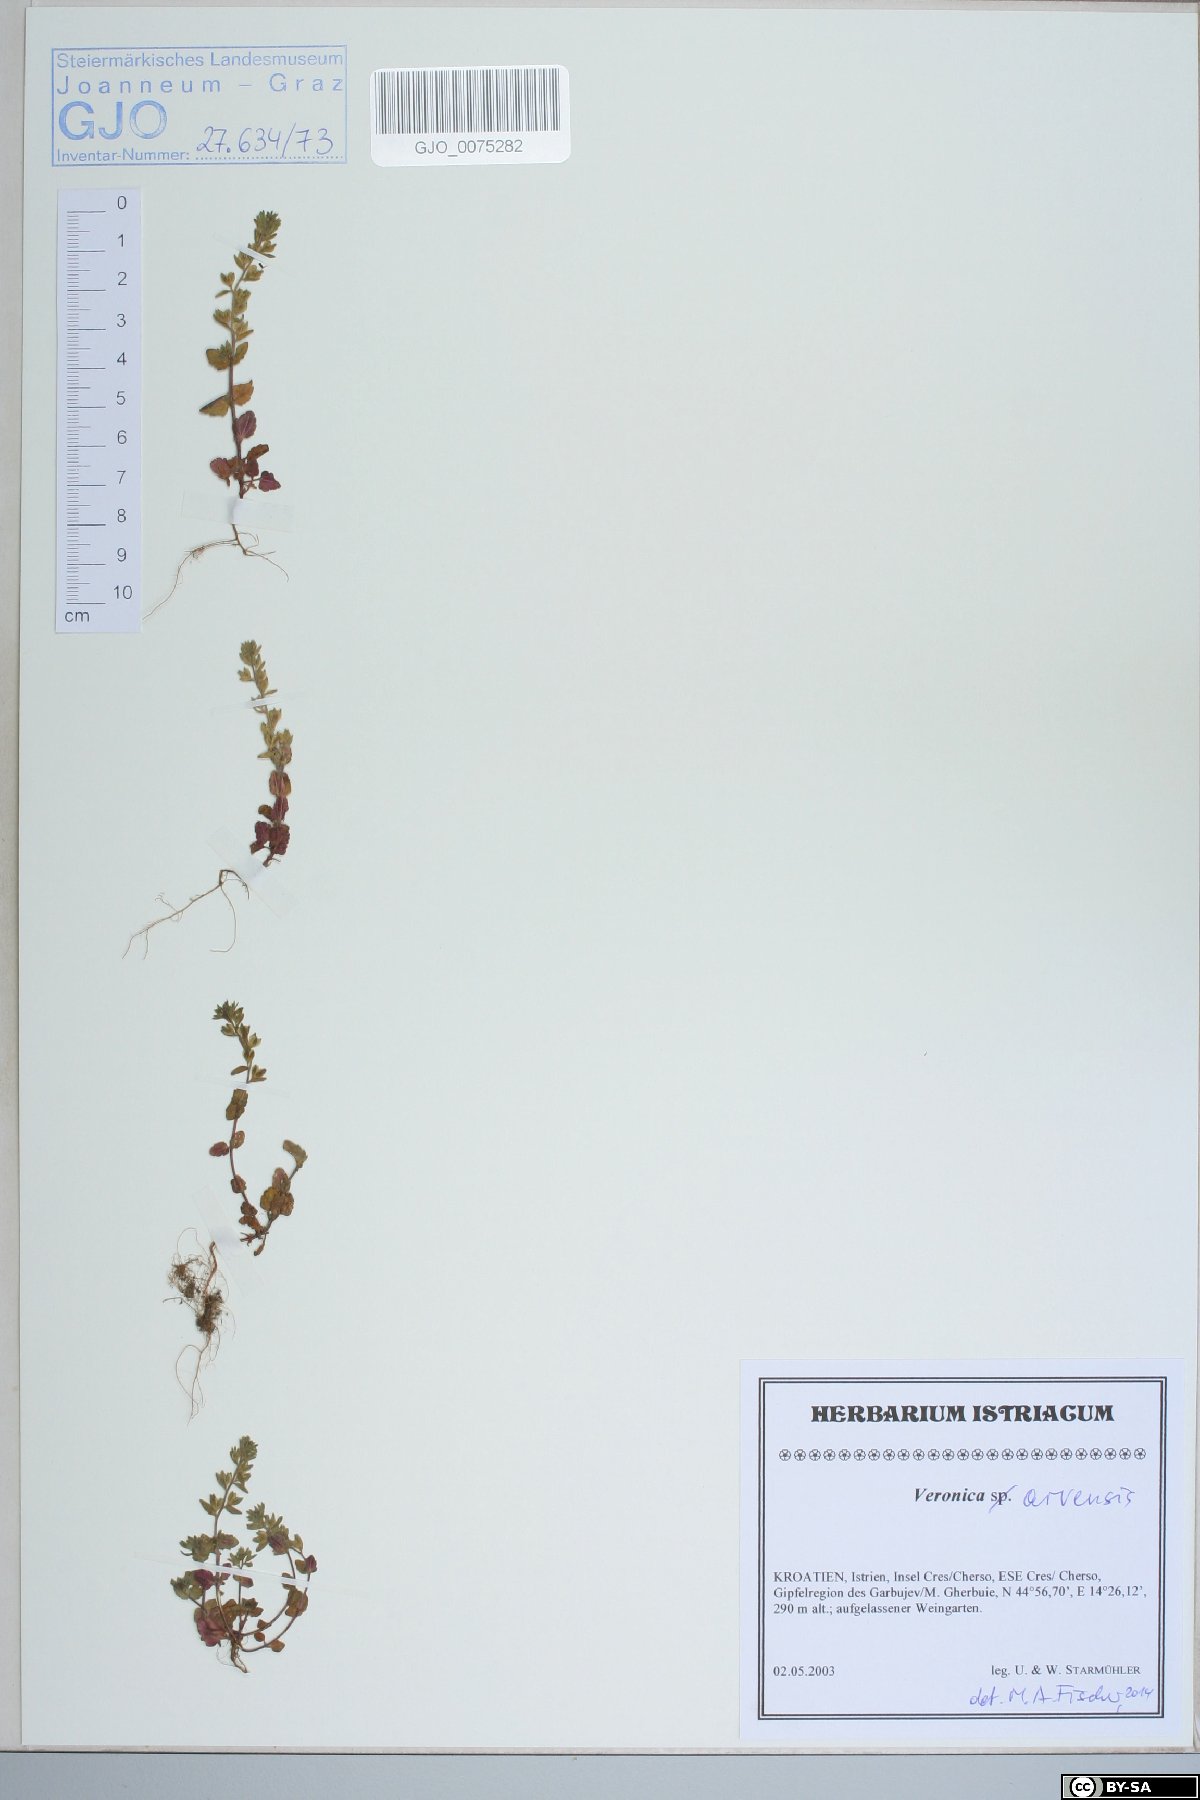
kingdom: Plantae
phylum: Tracheophyta
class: Magnoliopsida
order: Lamiales
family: Plantaginaceae
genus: Veronica
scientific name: Veronica arvensis
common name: Corn speedwell
